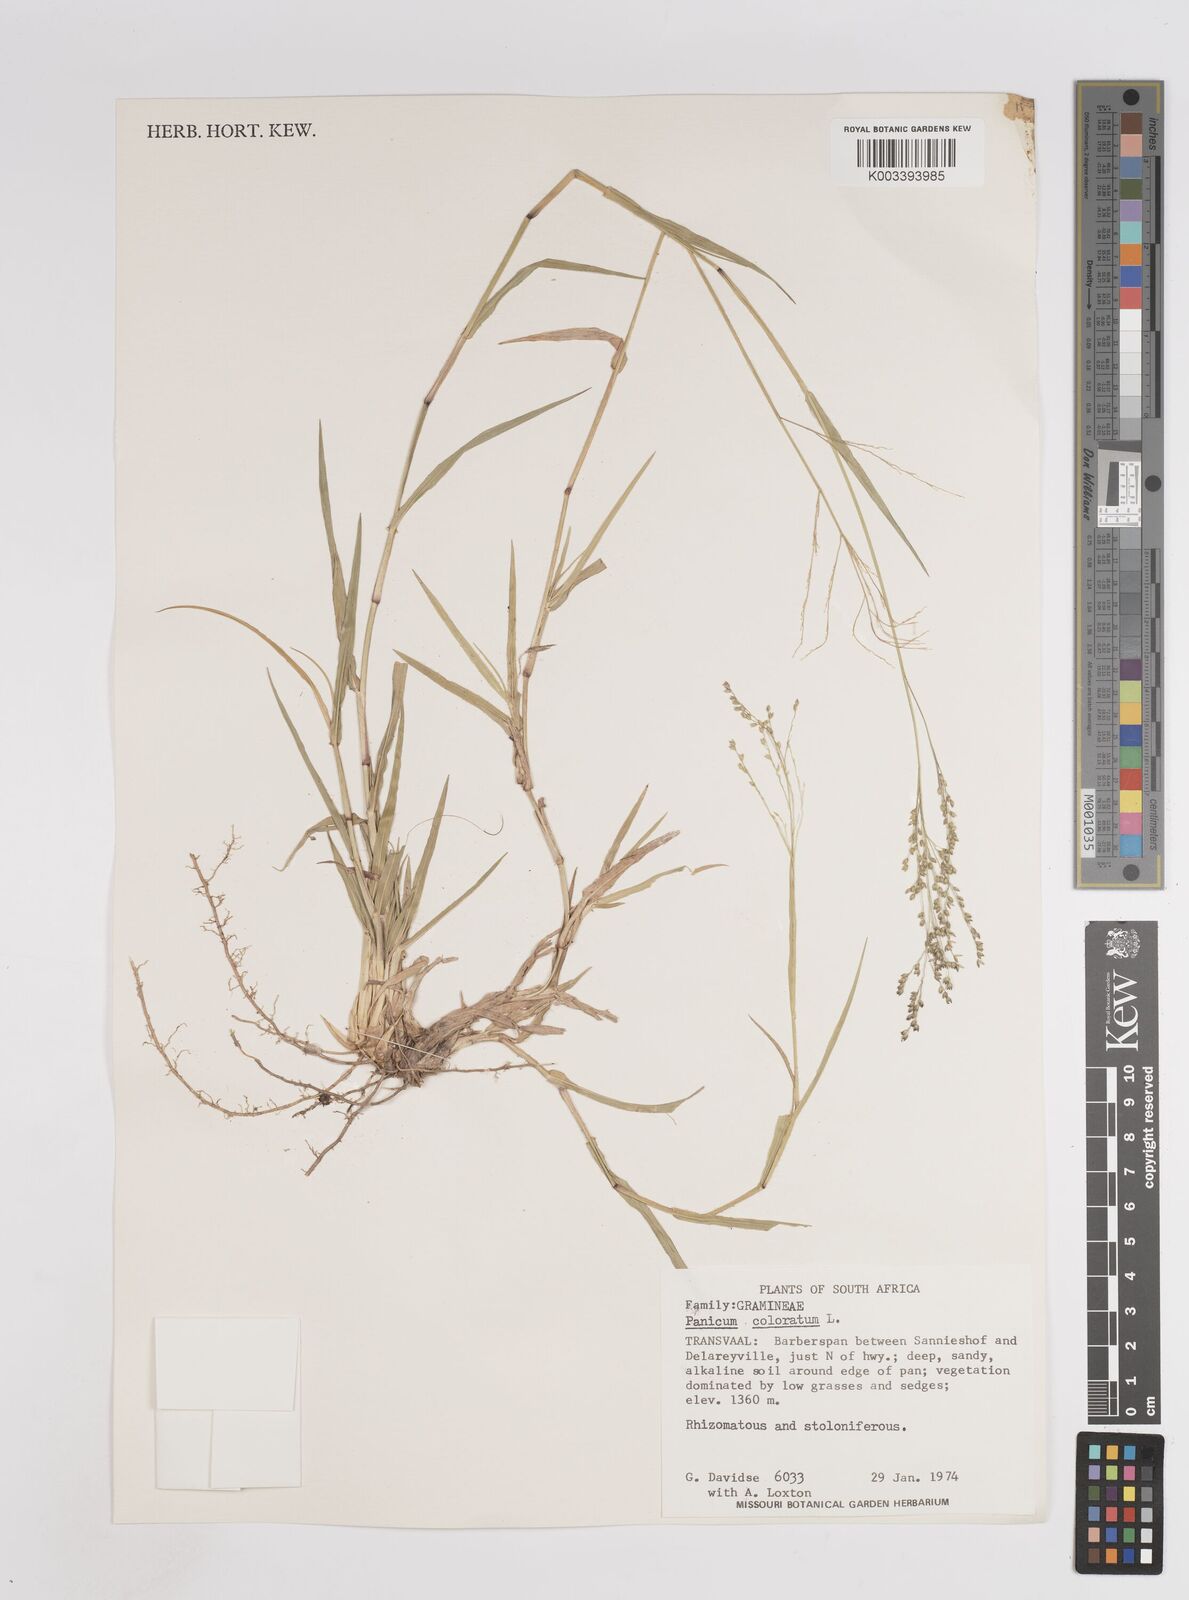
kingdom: Plantae
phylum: Tracheophyta
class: Liliopsida
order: Poales
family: Poaceae
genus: Panicum
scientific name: Panicum coloratum
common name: Kleingrass
